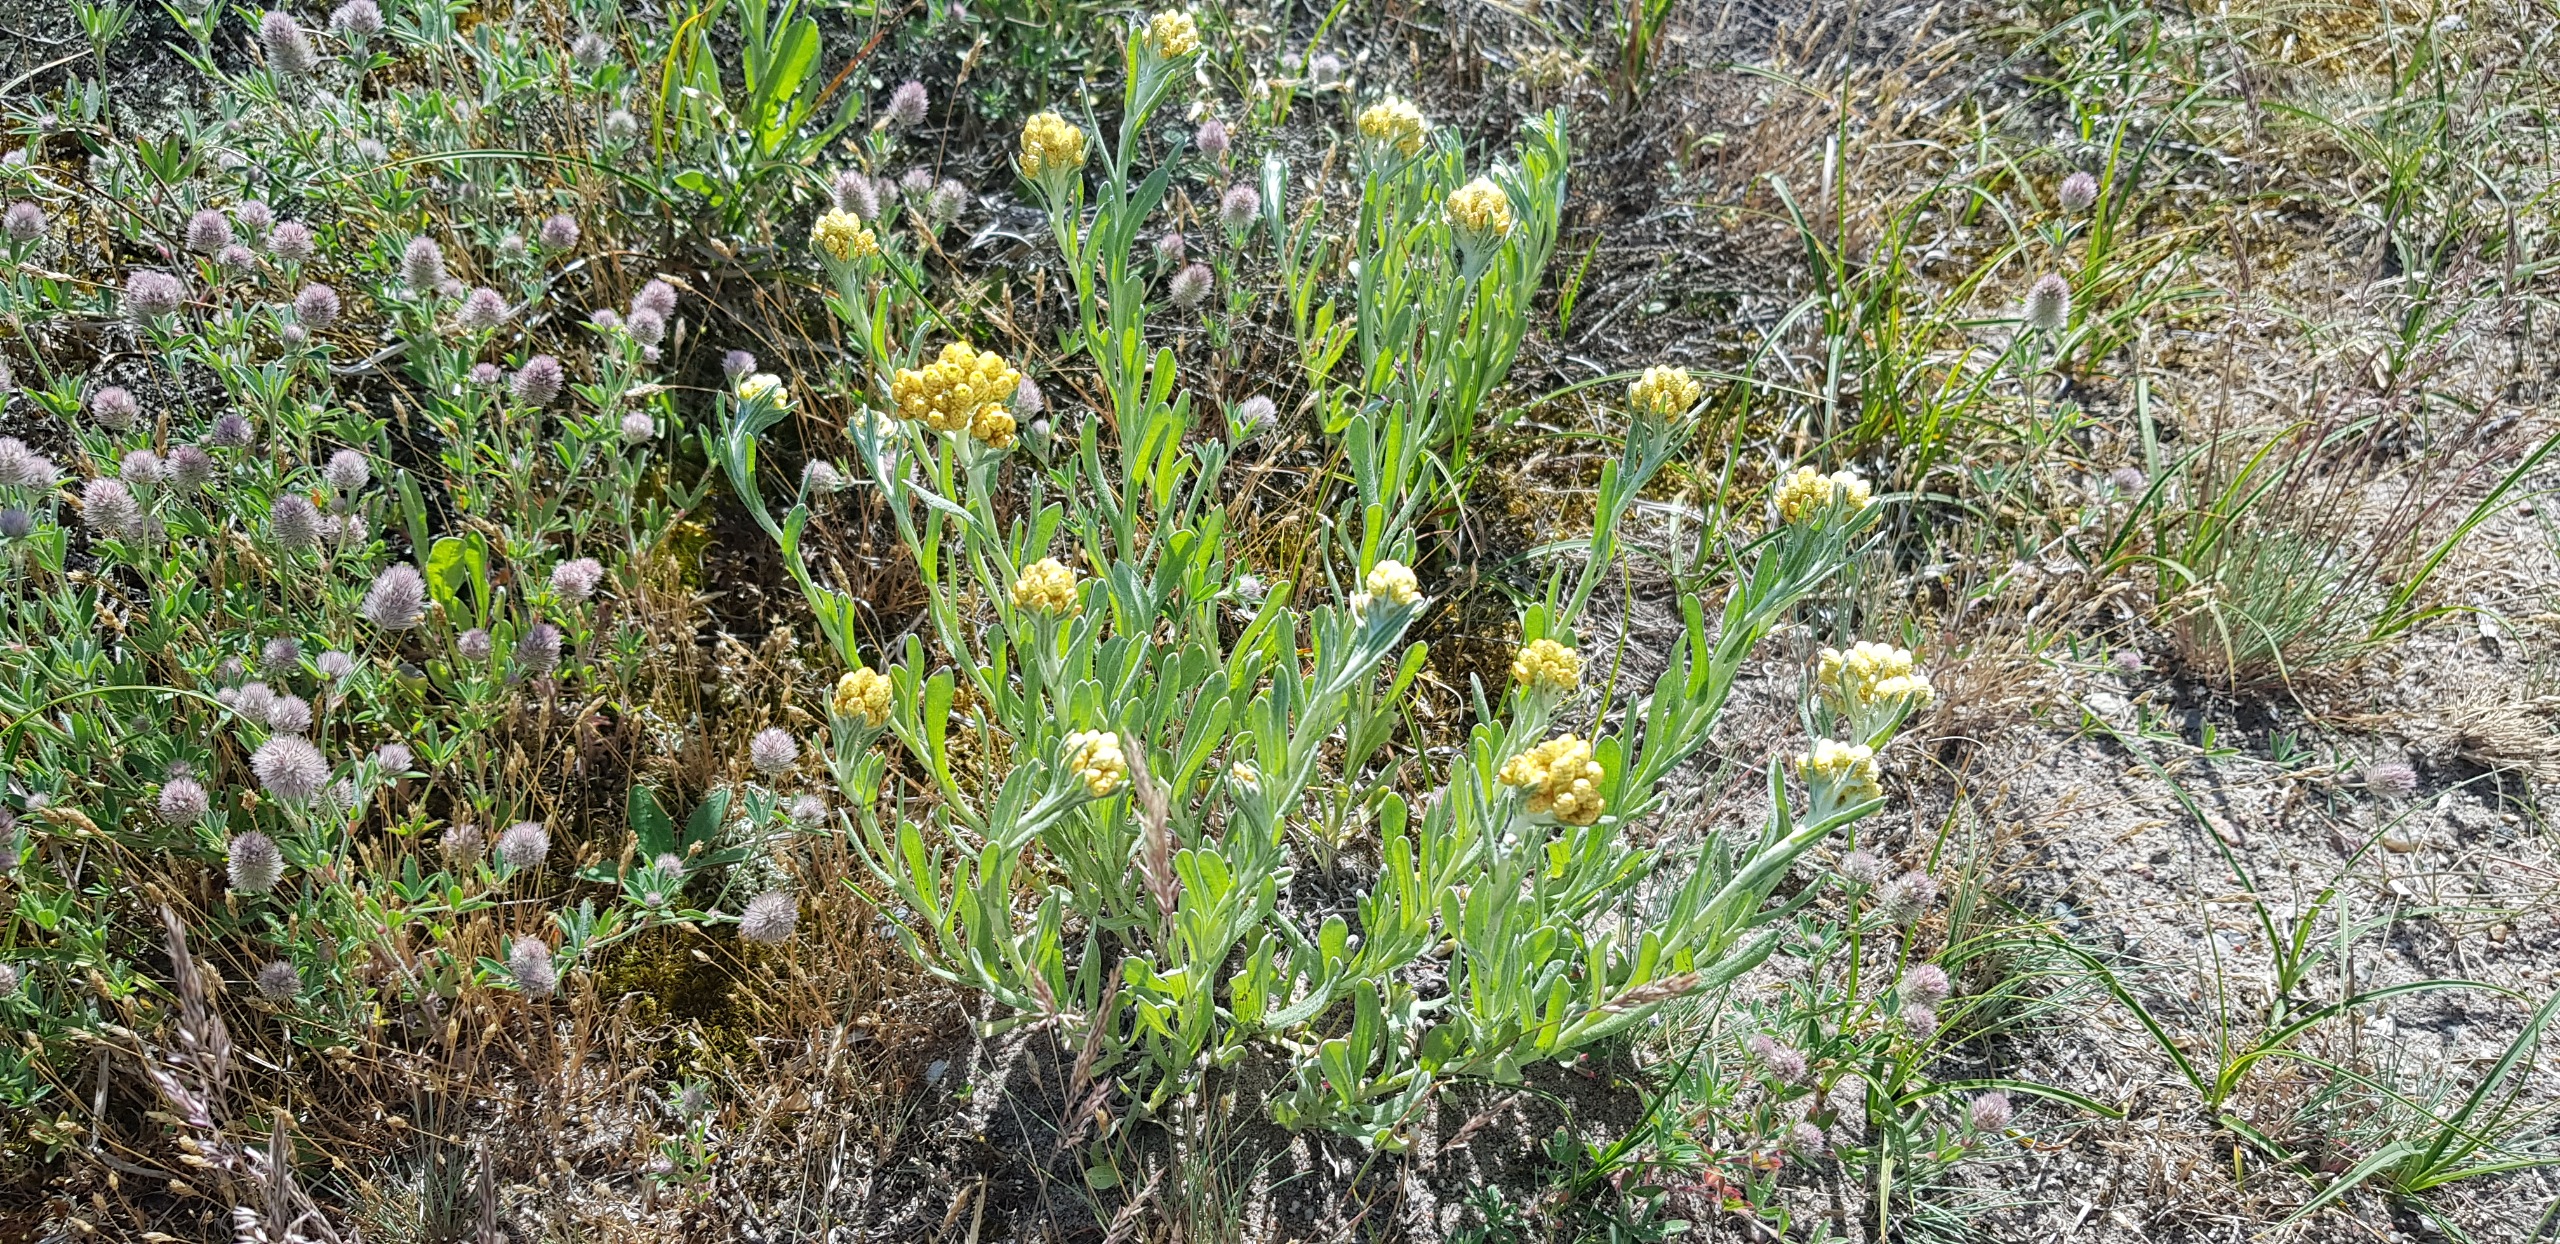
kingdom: Plantae
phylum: Tracheophyta
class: Magnoliopsida
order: Asterales
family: Asteraceae
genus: Helichrysum
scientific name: Helichrysum arenarium
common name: Gul evighedsblomst
